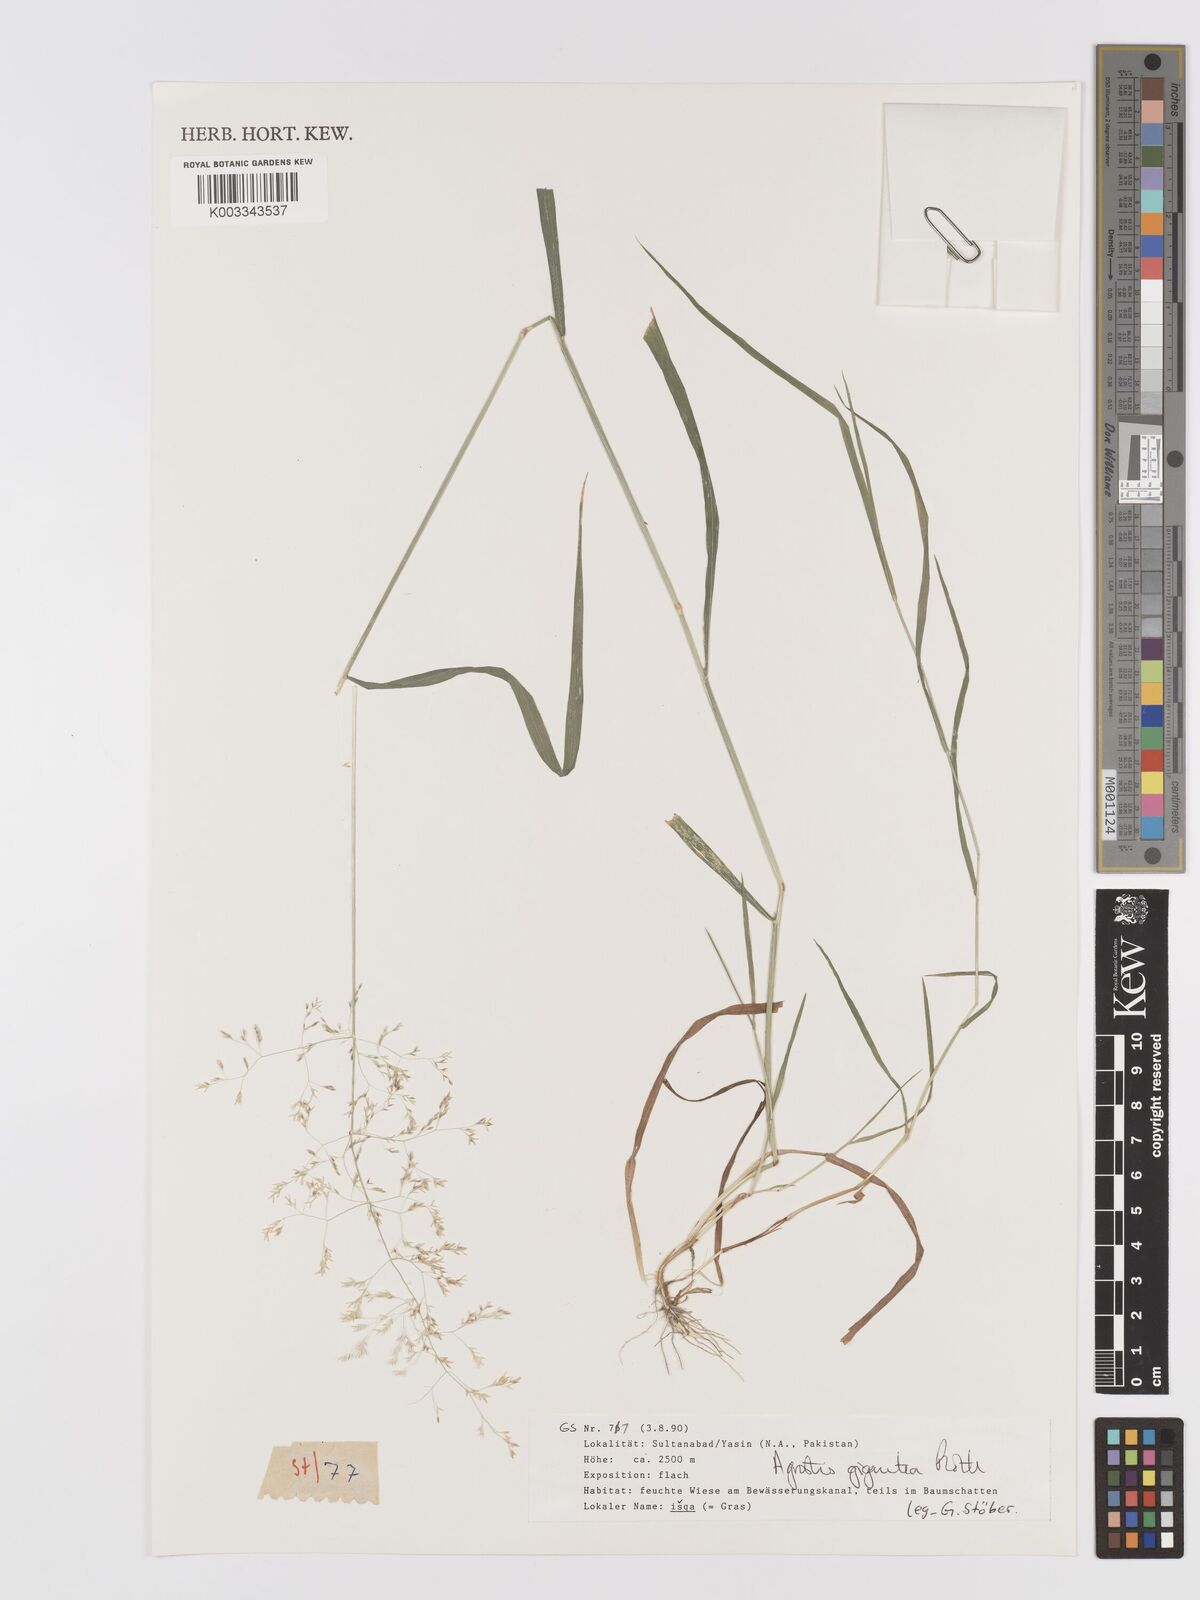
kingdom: Plantae
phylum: Tracheophyta
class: Liliopsida
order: Poales
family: Poaceae
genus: Agrostis
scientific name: Agrostis gigantea
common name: Black bent
